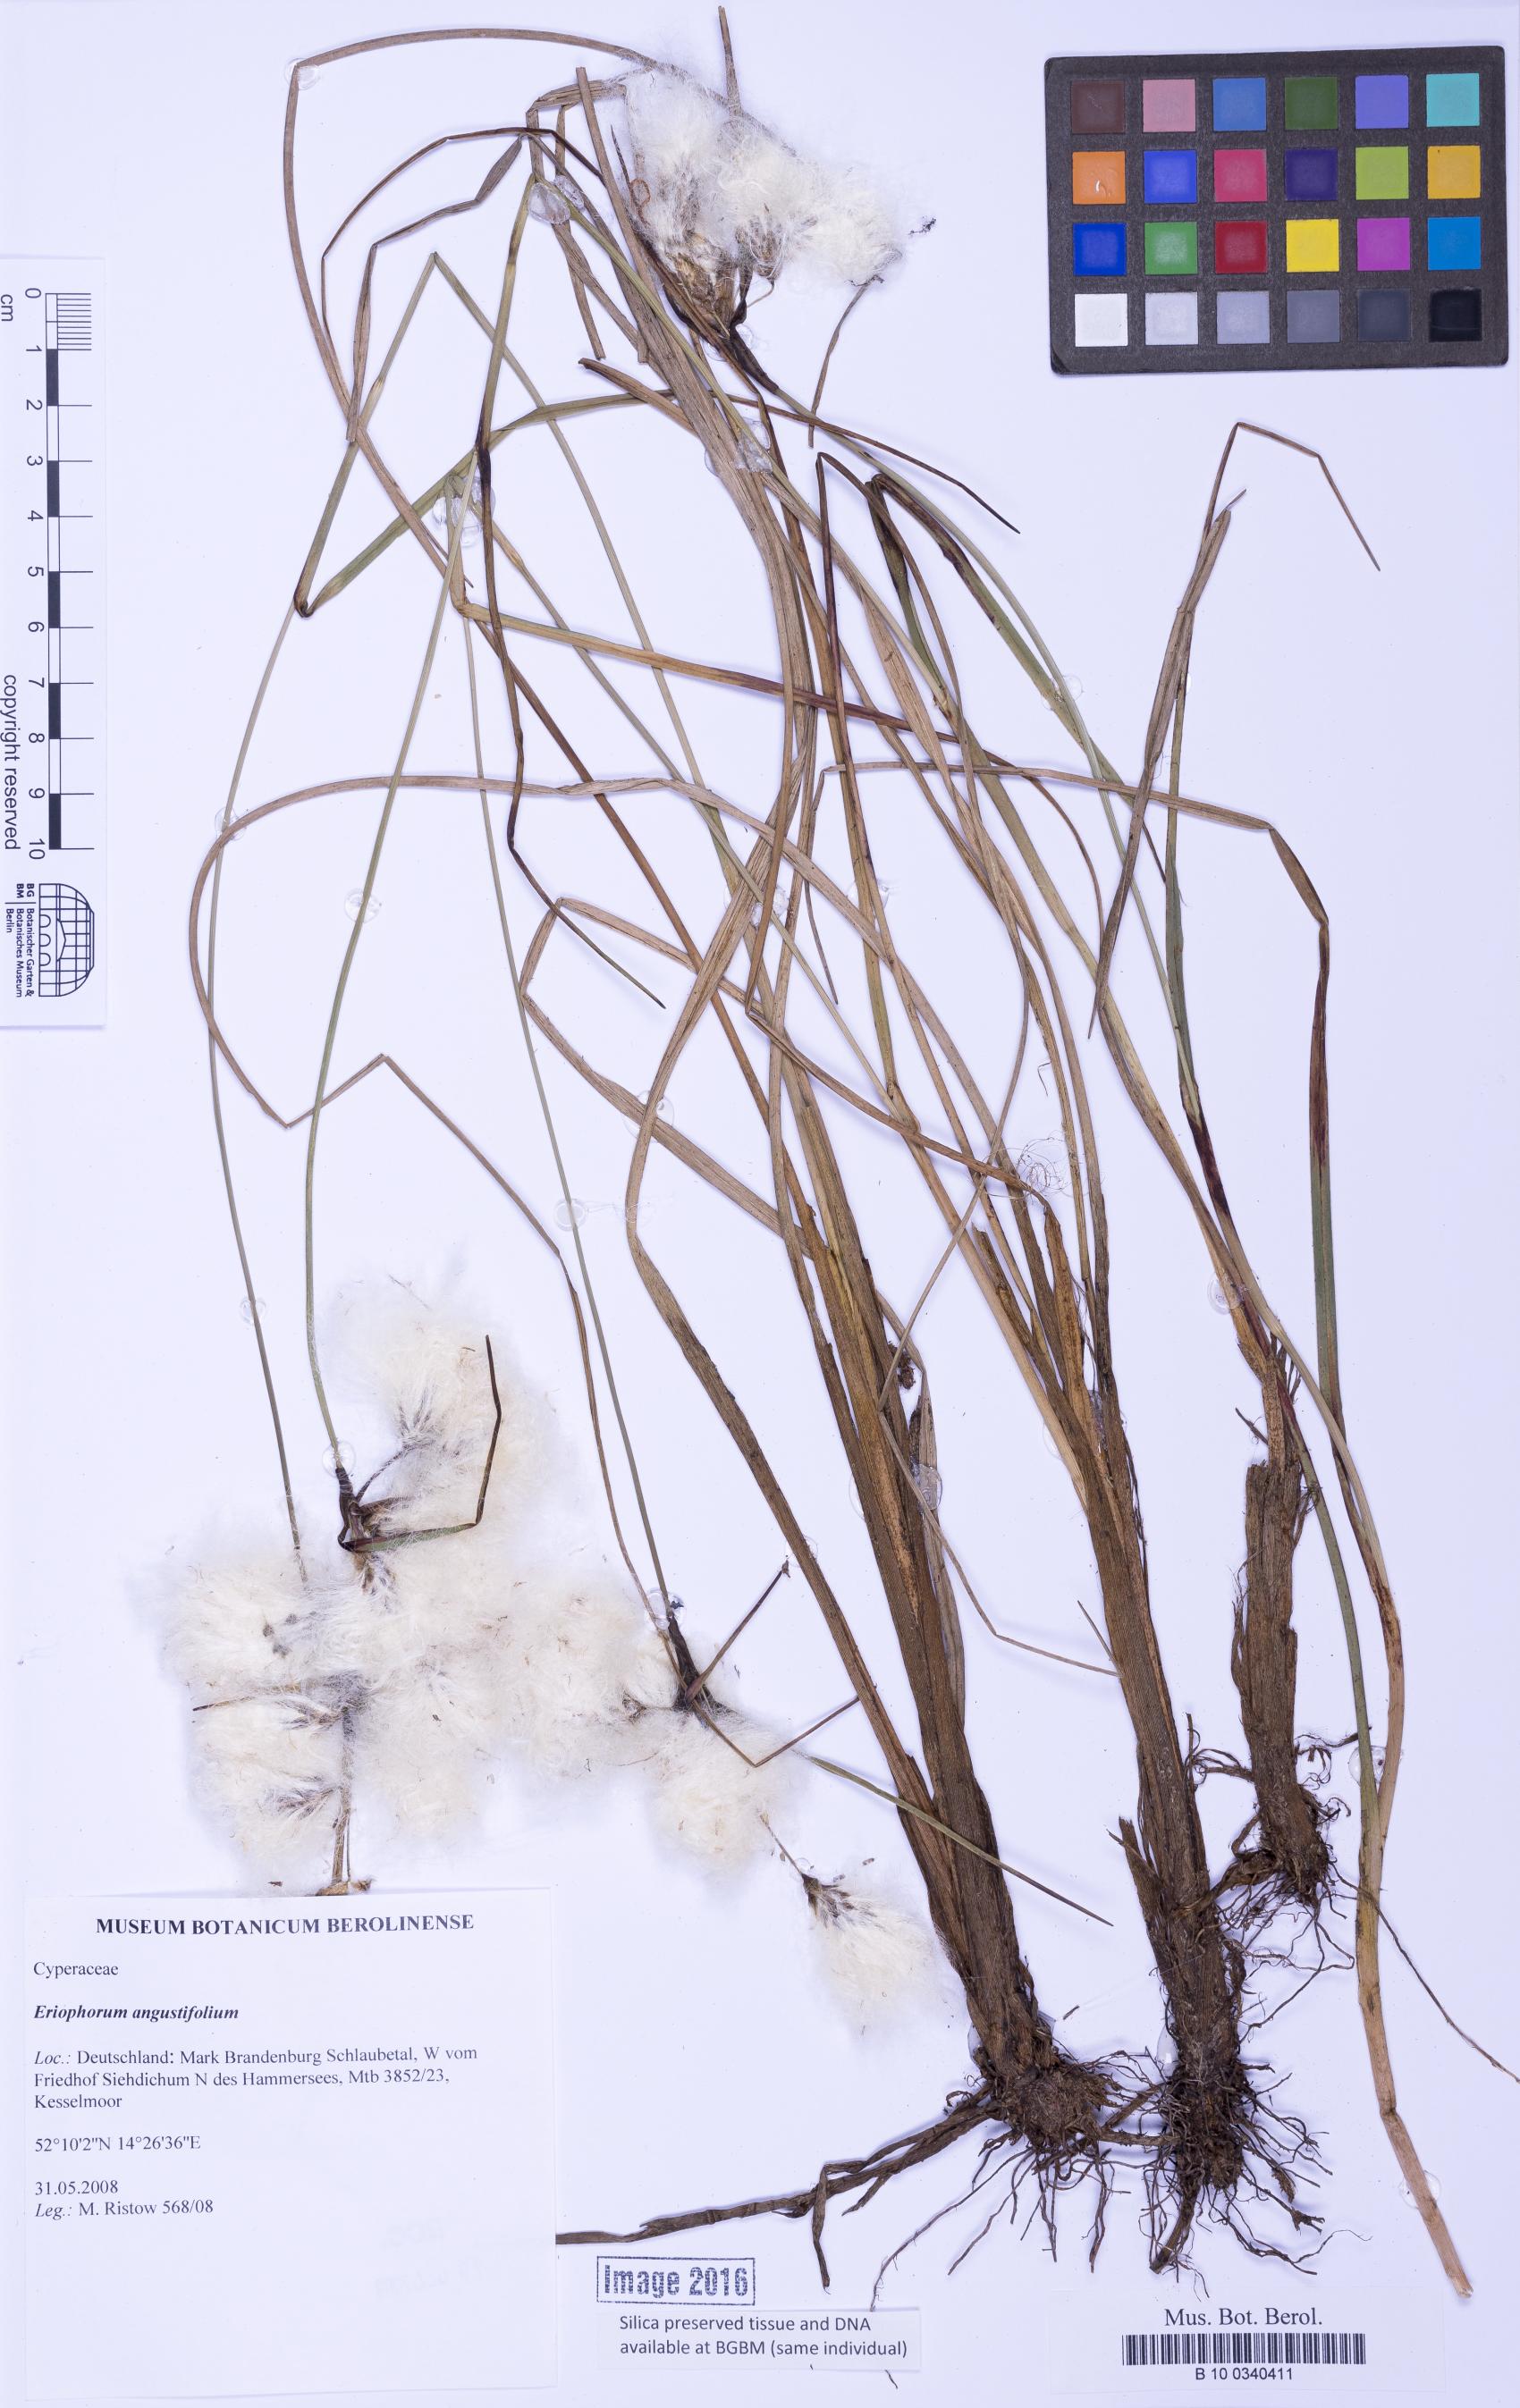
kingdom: Plantae
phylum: Tracheophyta
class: Liliopsida
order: Poales
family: Cyperaceae
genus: Eriophorum
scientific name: Eriophorum angustifolium
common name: Common cottongrass
